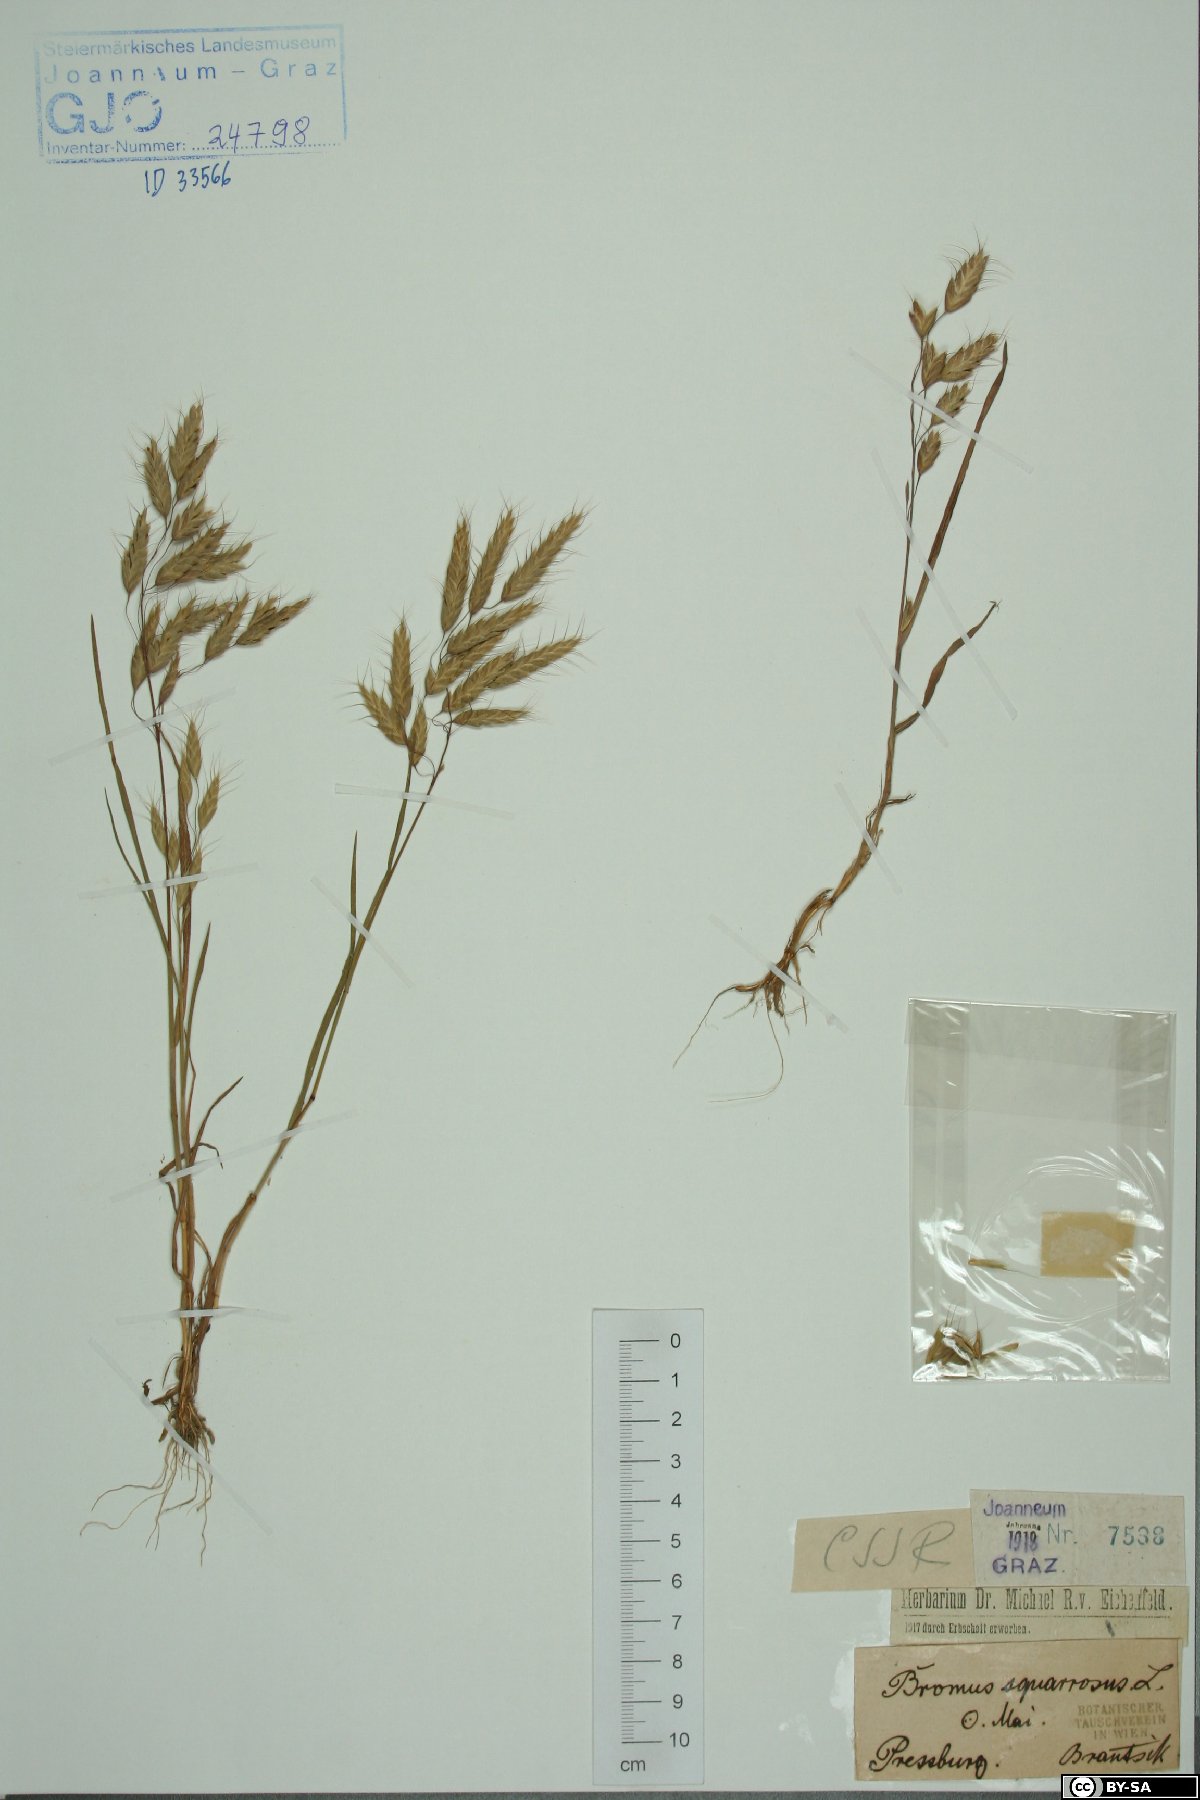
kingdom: Plantae
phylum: Tracheophyta
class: Liliopsida
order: Poales
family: Poaceae
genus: Bromus
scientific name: Bromus squarrosus
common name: Corn brome
